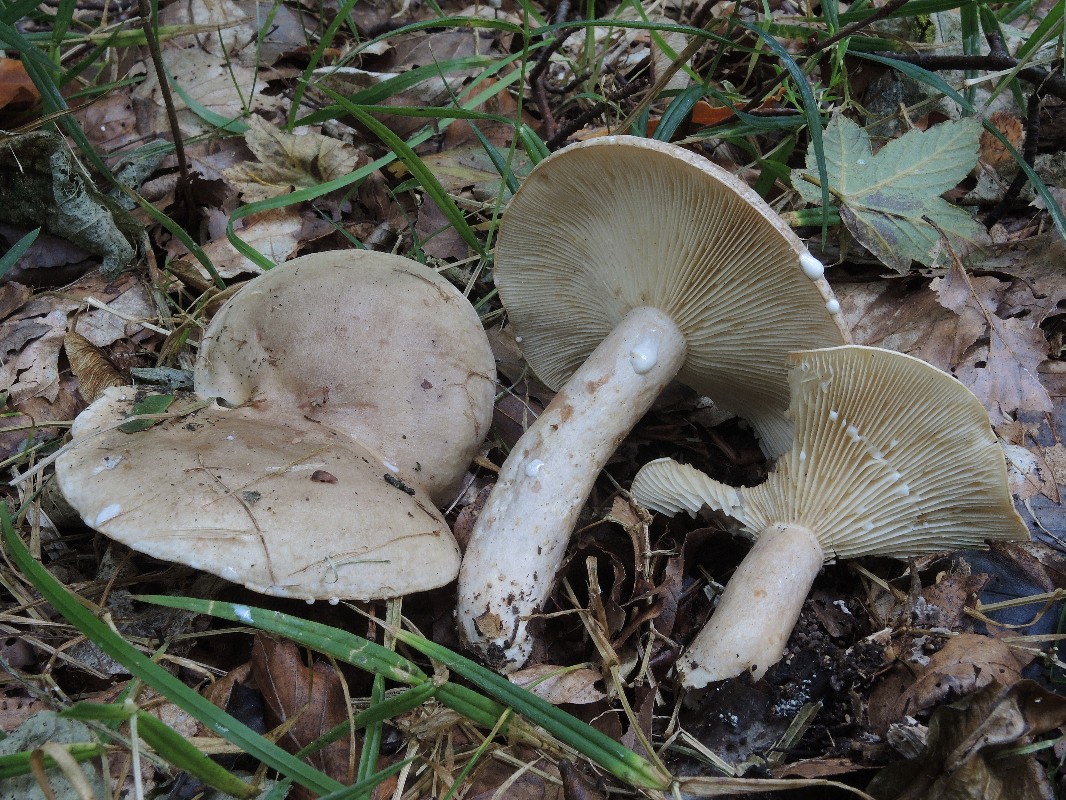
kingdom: Fungi
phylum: Basidiomycota
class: Agaricomycetes
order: Russulales
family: Russulaceae
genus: Lactarius
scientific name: Lactarius circellatus
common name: avnbøg-mælkehat
